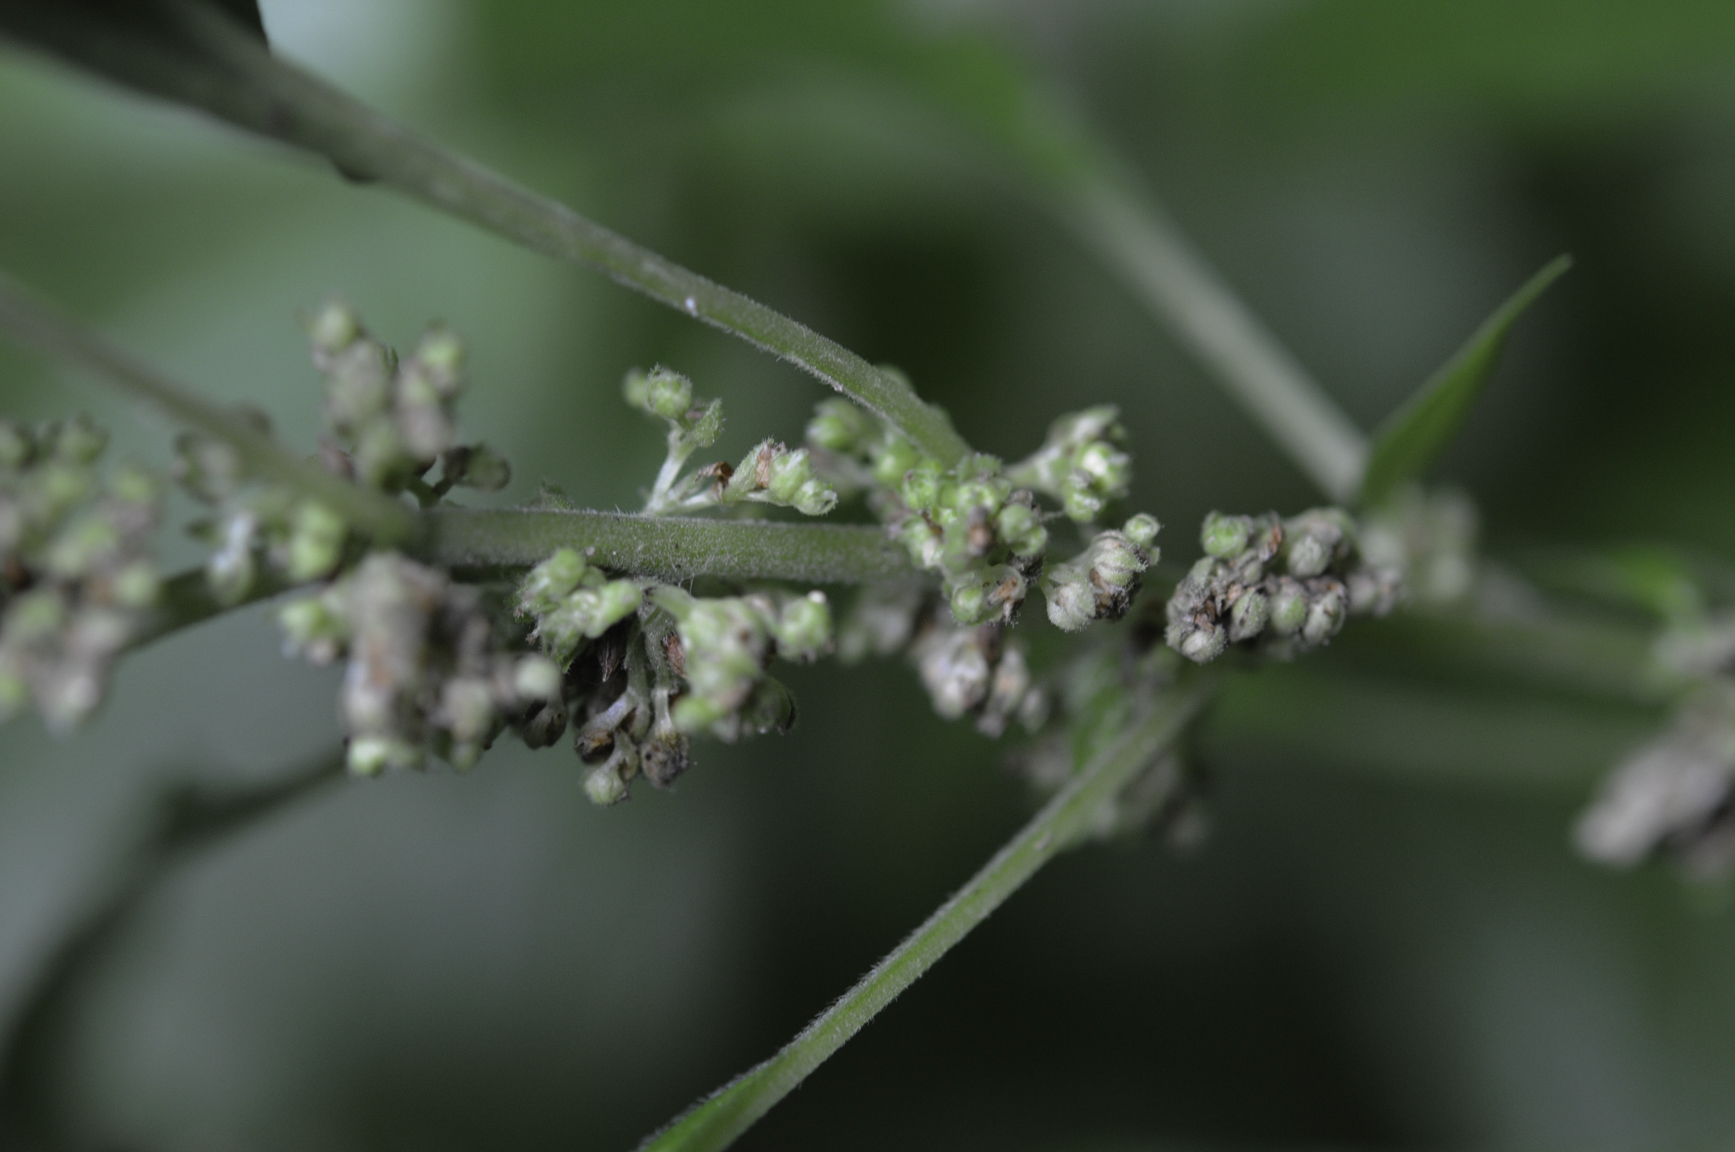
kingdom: Plantae
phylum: Tracheophyta
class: Magnoliopsida
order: Rosales
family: Urticaceae
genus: Parietaria
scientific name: Parietaria officinalis
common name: Eastern pellitory-of-the-wall
